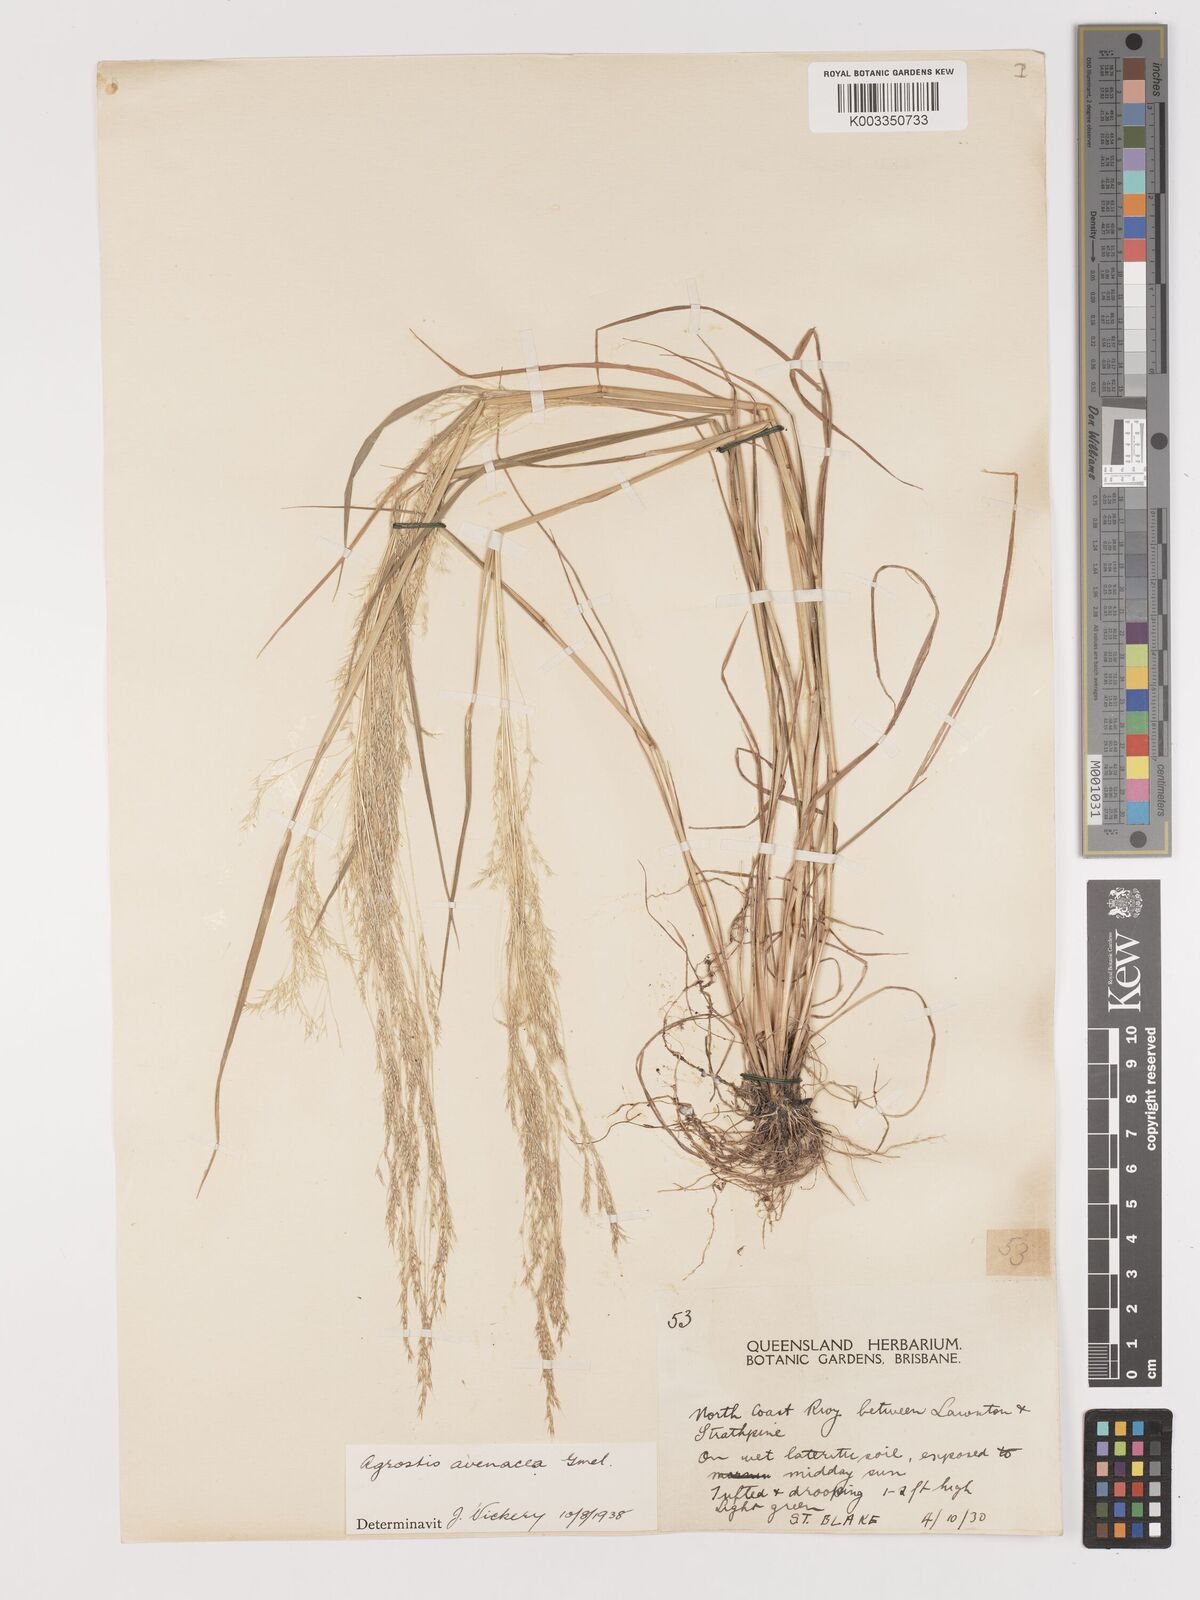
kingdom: Plantae
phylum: Tracheophyta
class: Liliopsida
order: Poales
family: Poaceae
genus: Lachnagrostis
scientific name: Lachnagrostis filiformis
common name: Bentgrass
